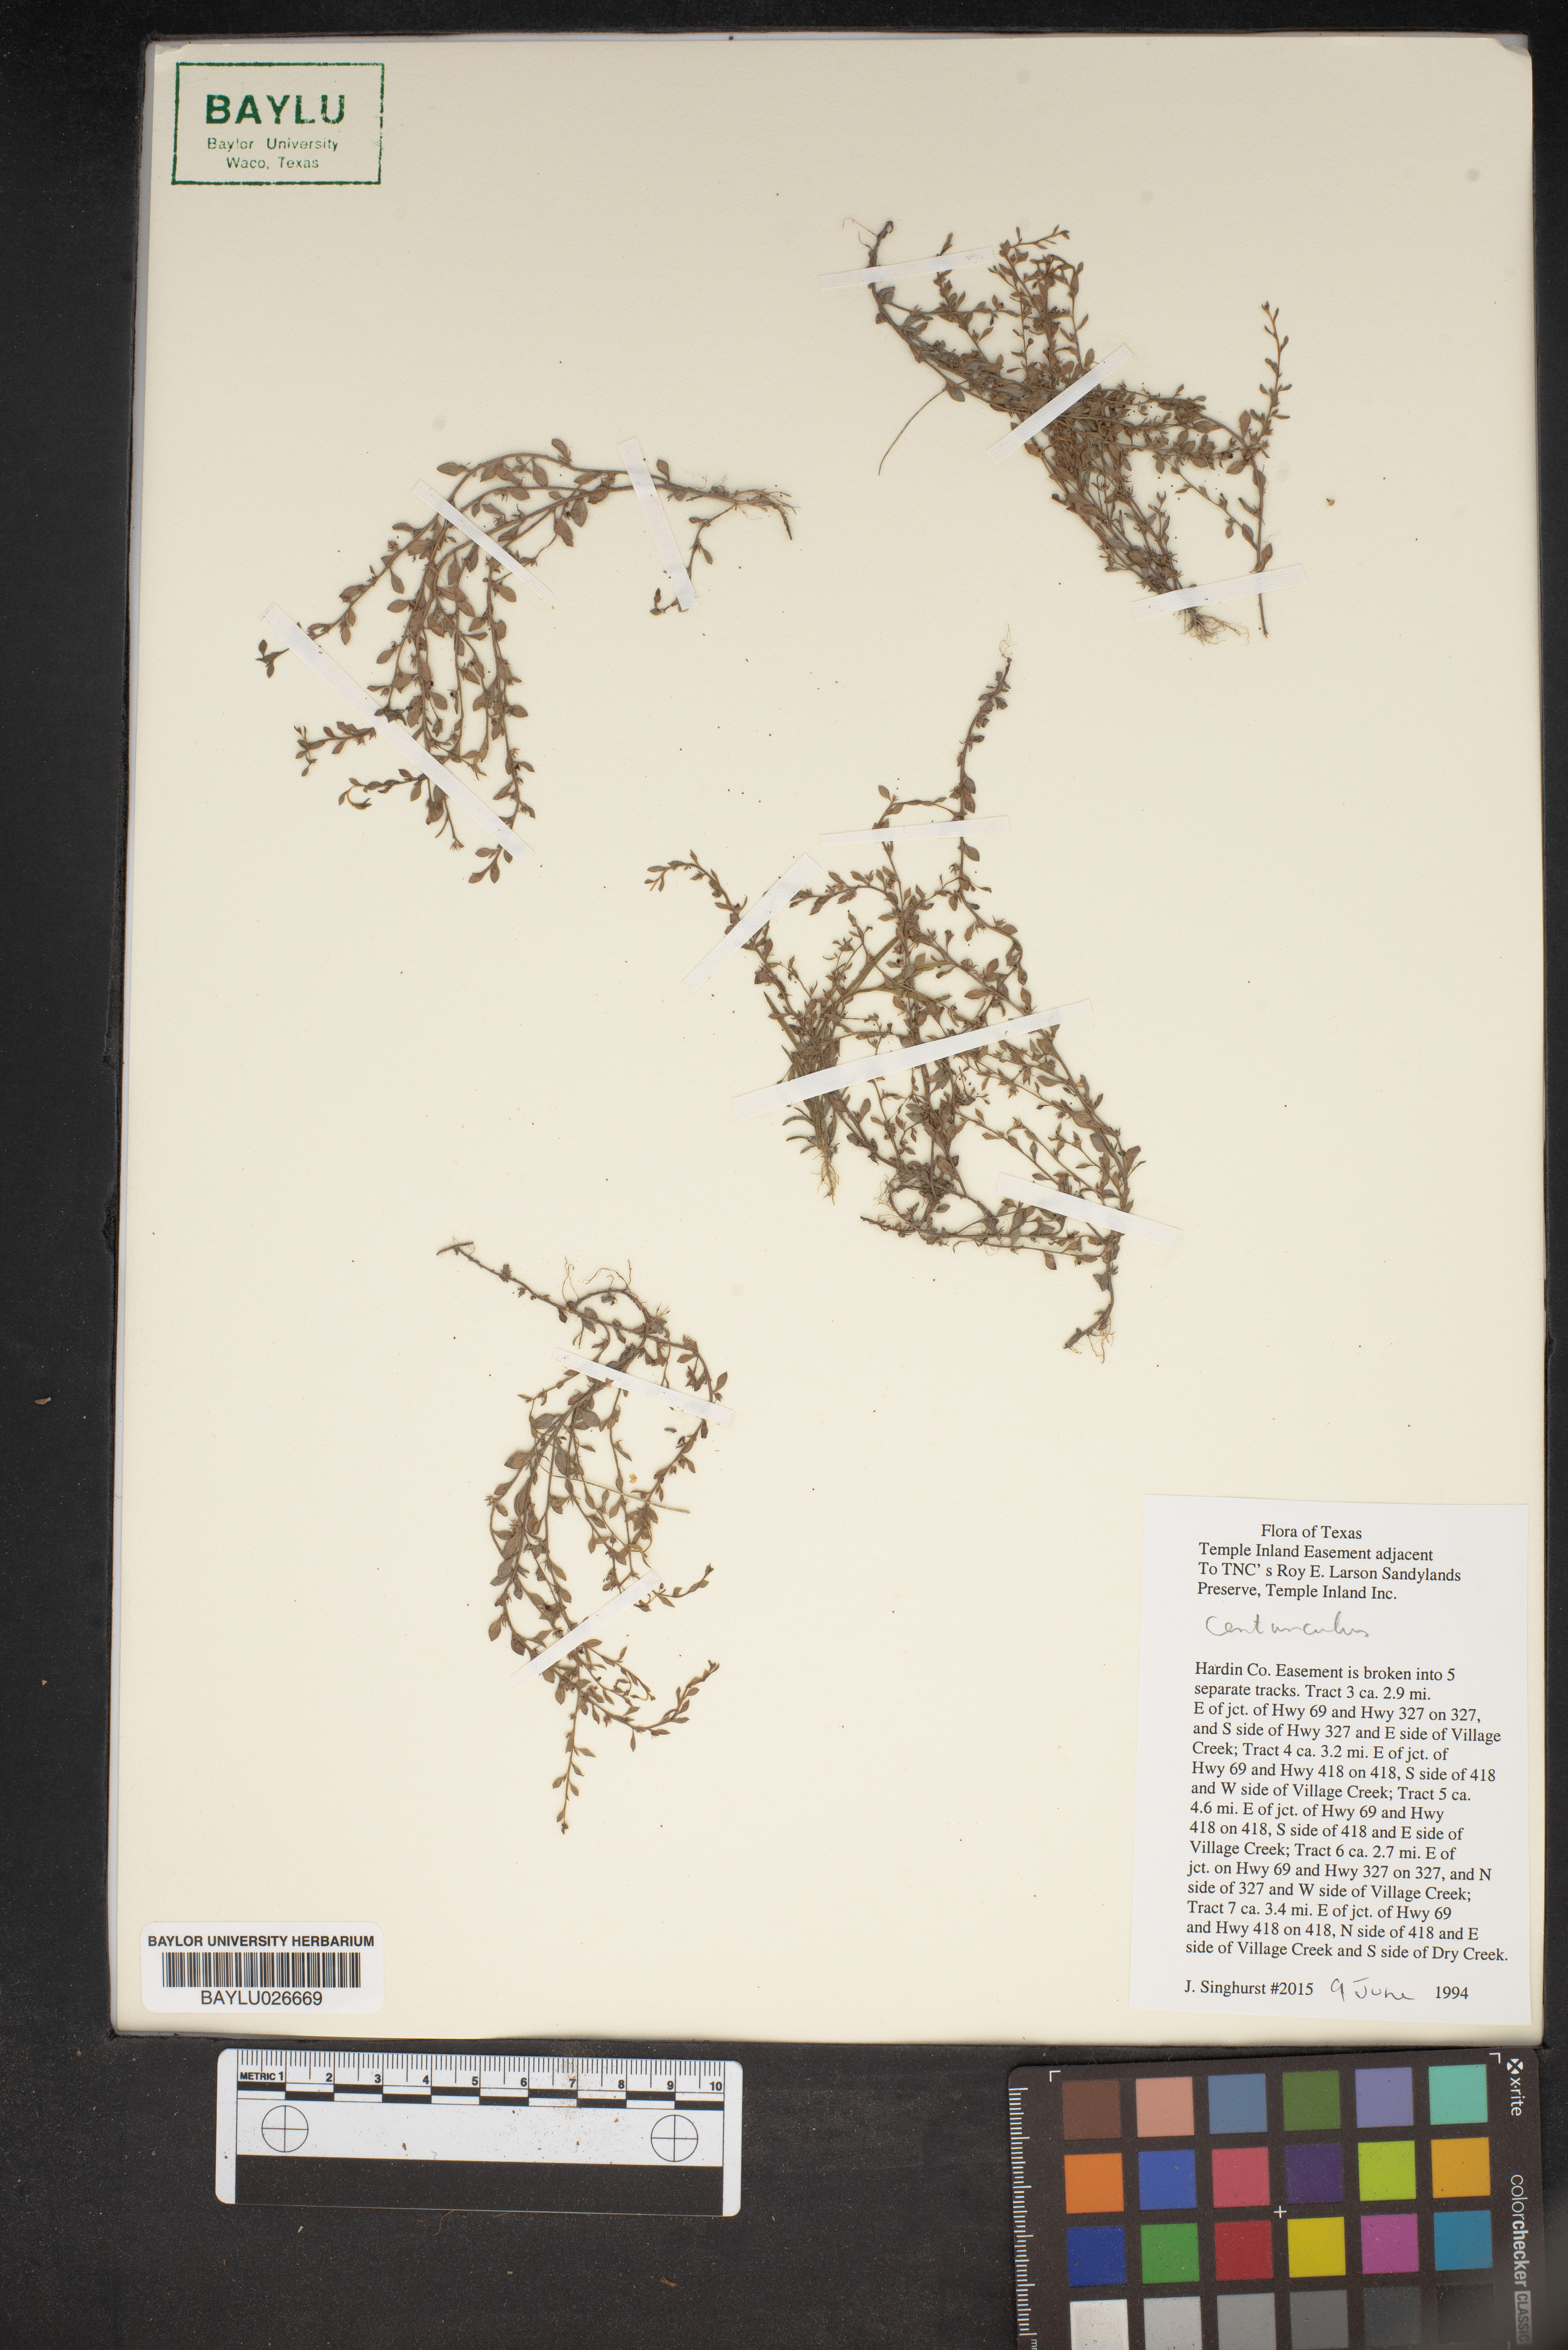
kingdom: Plantae
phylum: Tracheophyta
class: Magnoliopsida
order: Ericales
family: Primulaceae
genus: Lysimachia
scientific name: Lysimachia
